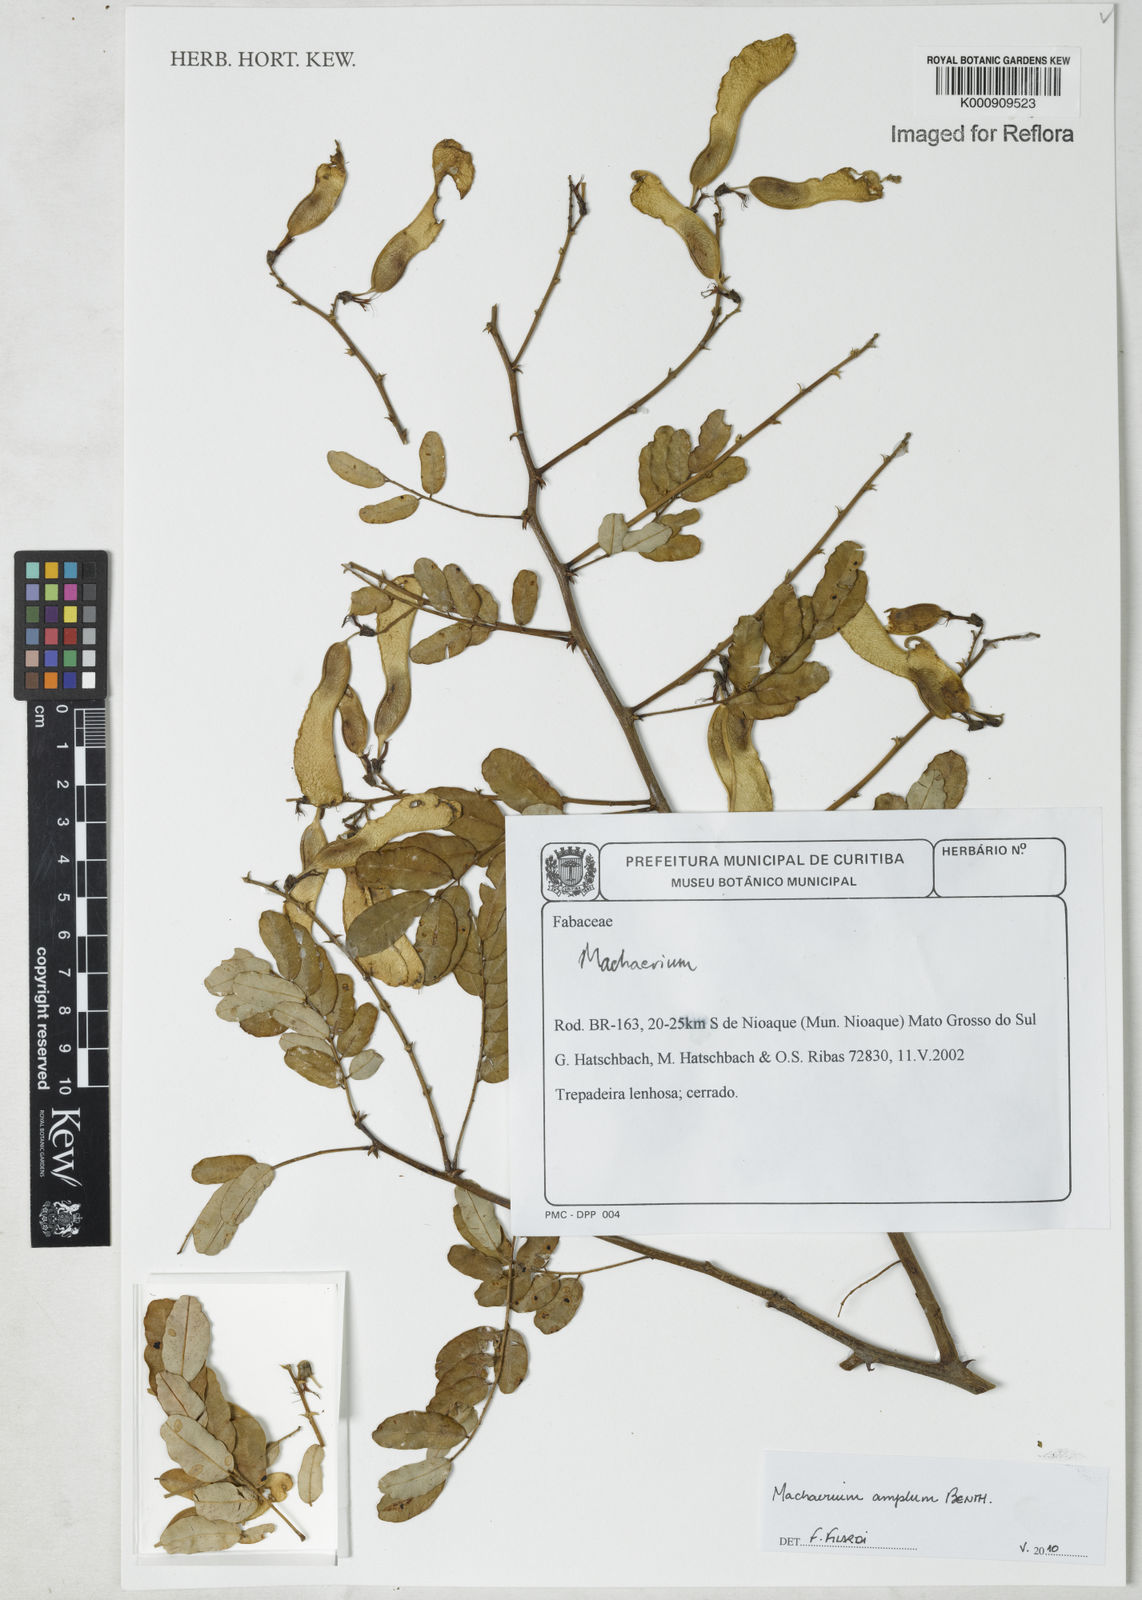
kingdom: Plantae
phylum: Tracheophyta
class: Magnoliopsida
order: Fabales
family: Fabaceae
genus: Machaerium
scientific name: Machaerium amplum
